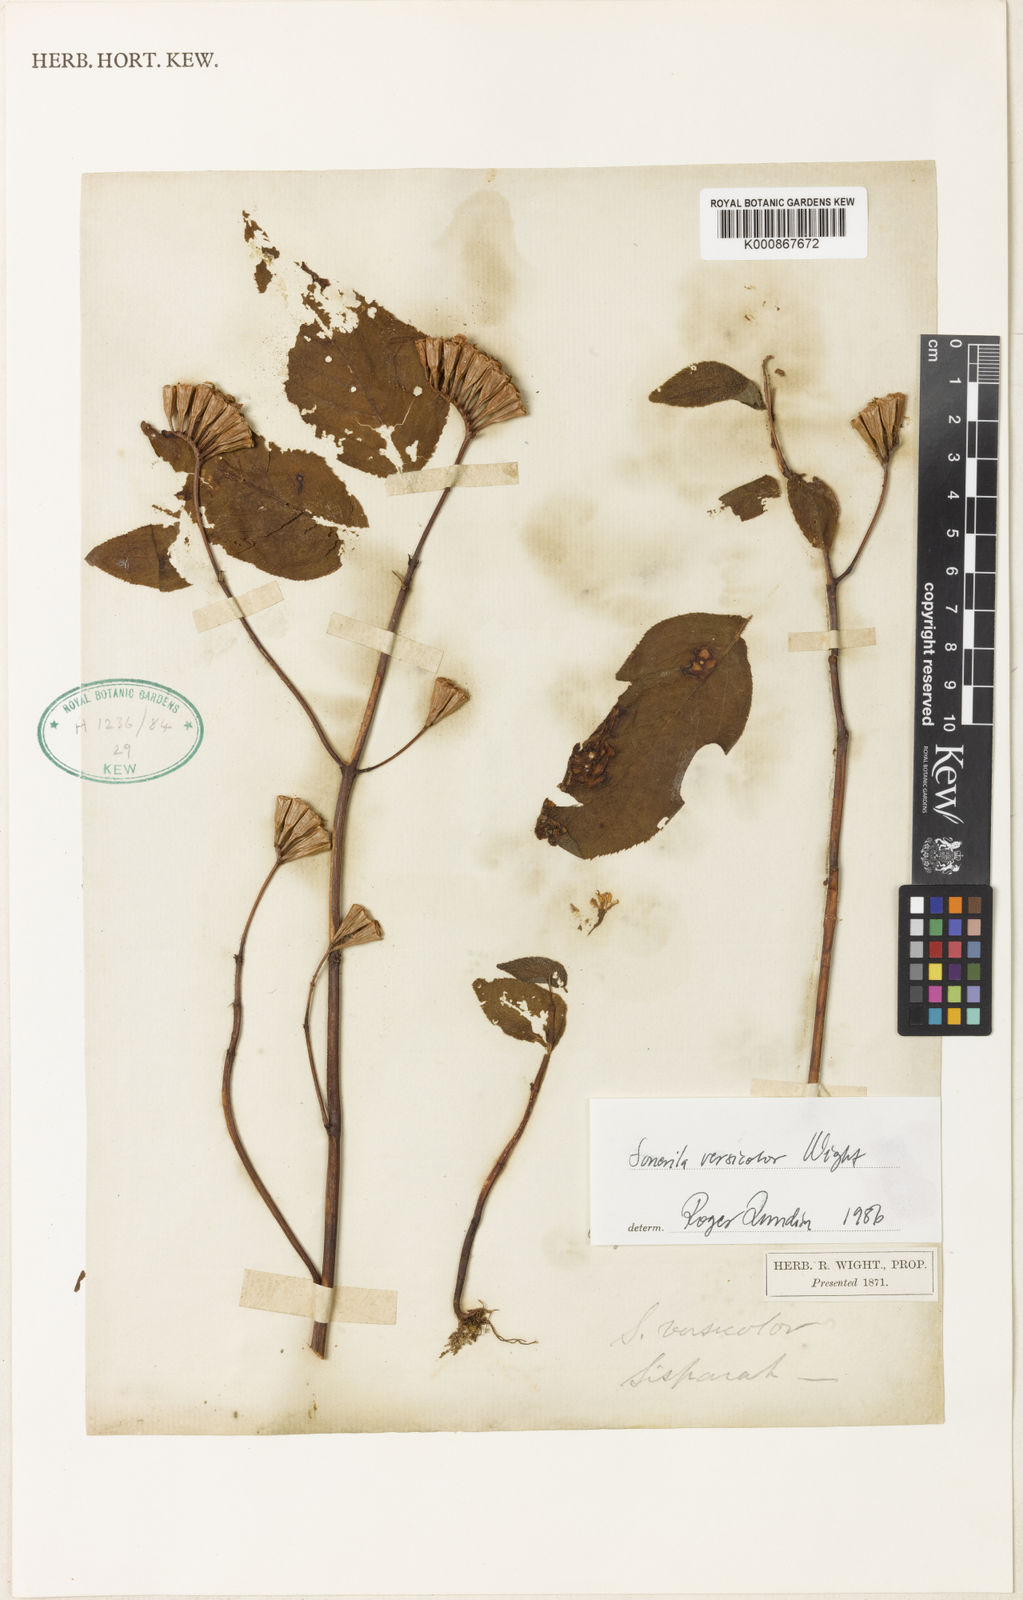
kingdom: Plantae
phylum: Tracheophyta
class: Magnoliopsida
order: Myrtales
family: Melastomataceae
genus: Sonerila
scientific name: Sonerila versicolor
